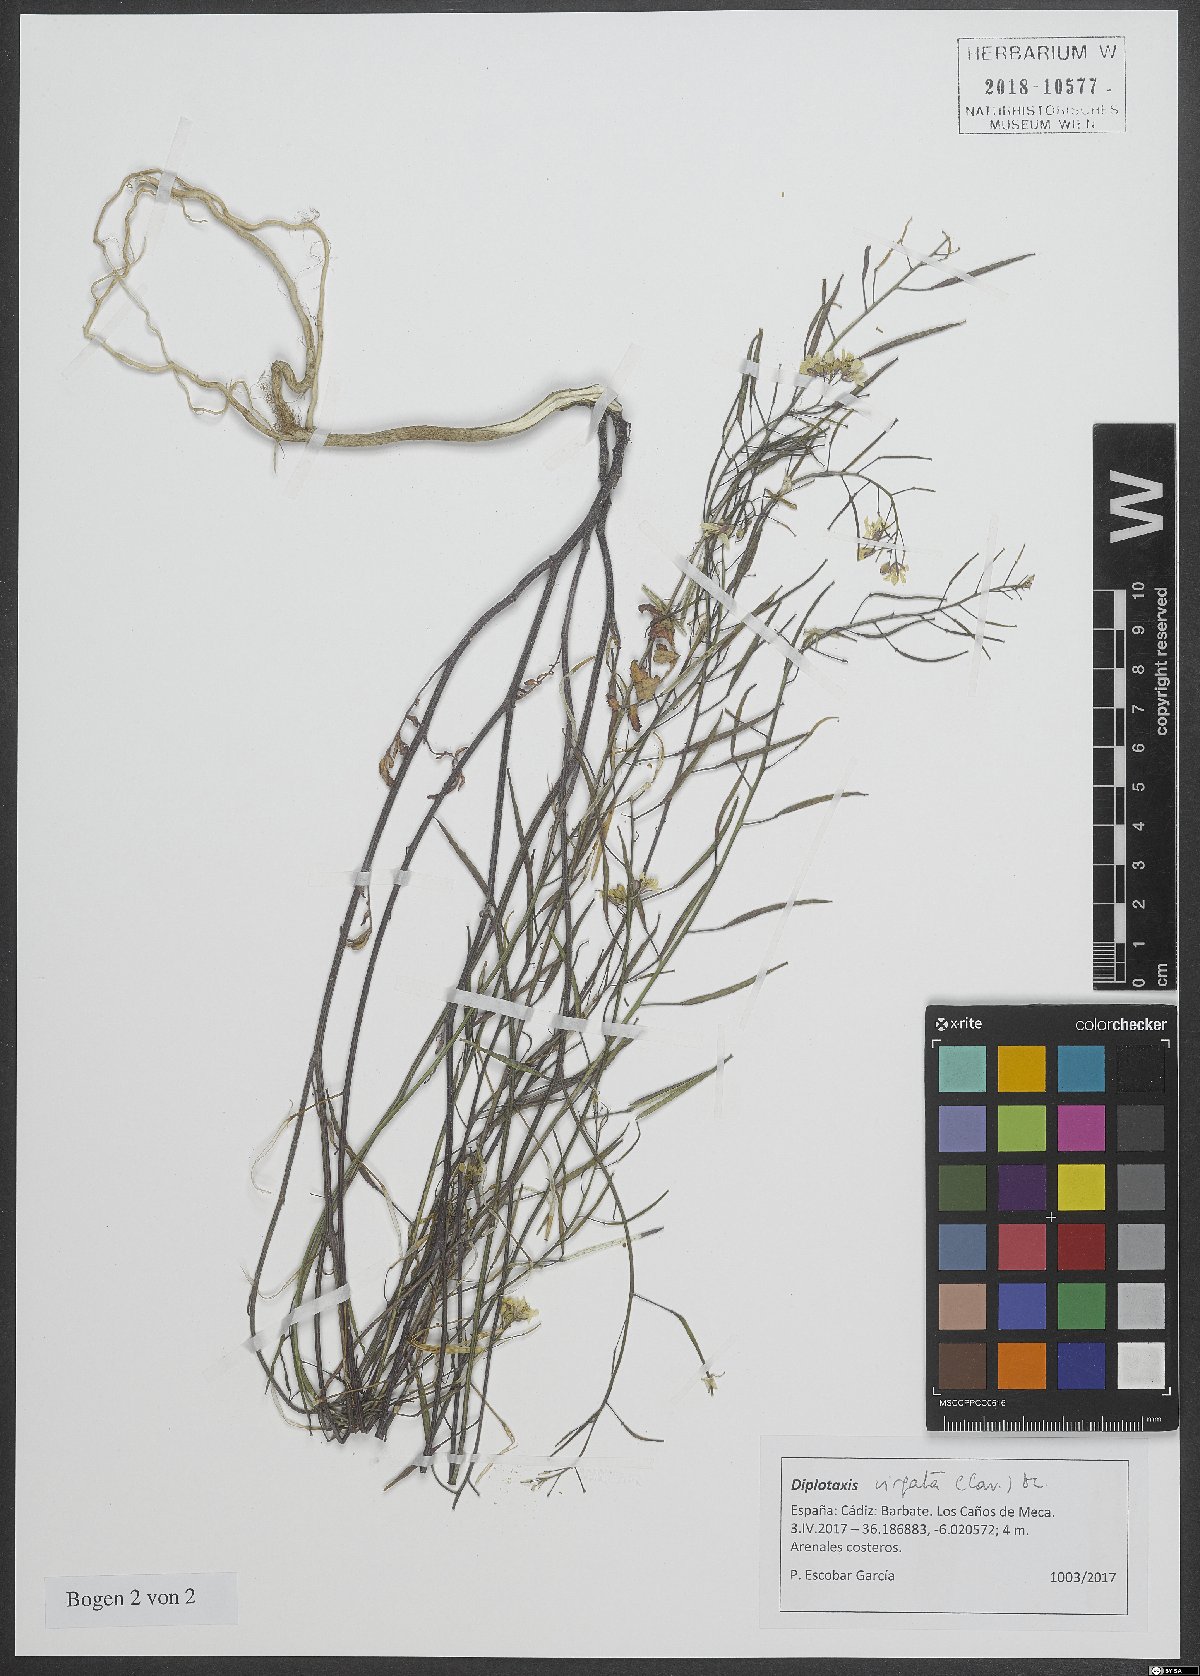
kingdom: Plantae
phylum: Tracheophyta
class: Magnoliopsida
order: Brassicales
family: Brassicaceae
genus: Diplotaxis
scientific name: Diplotaxis virgata
